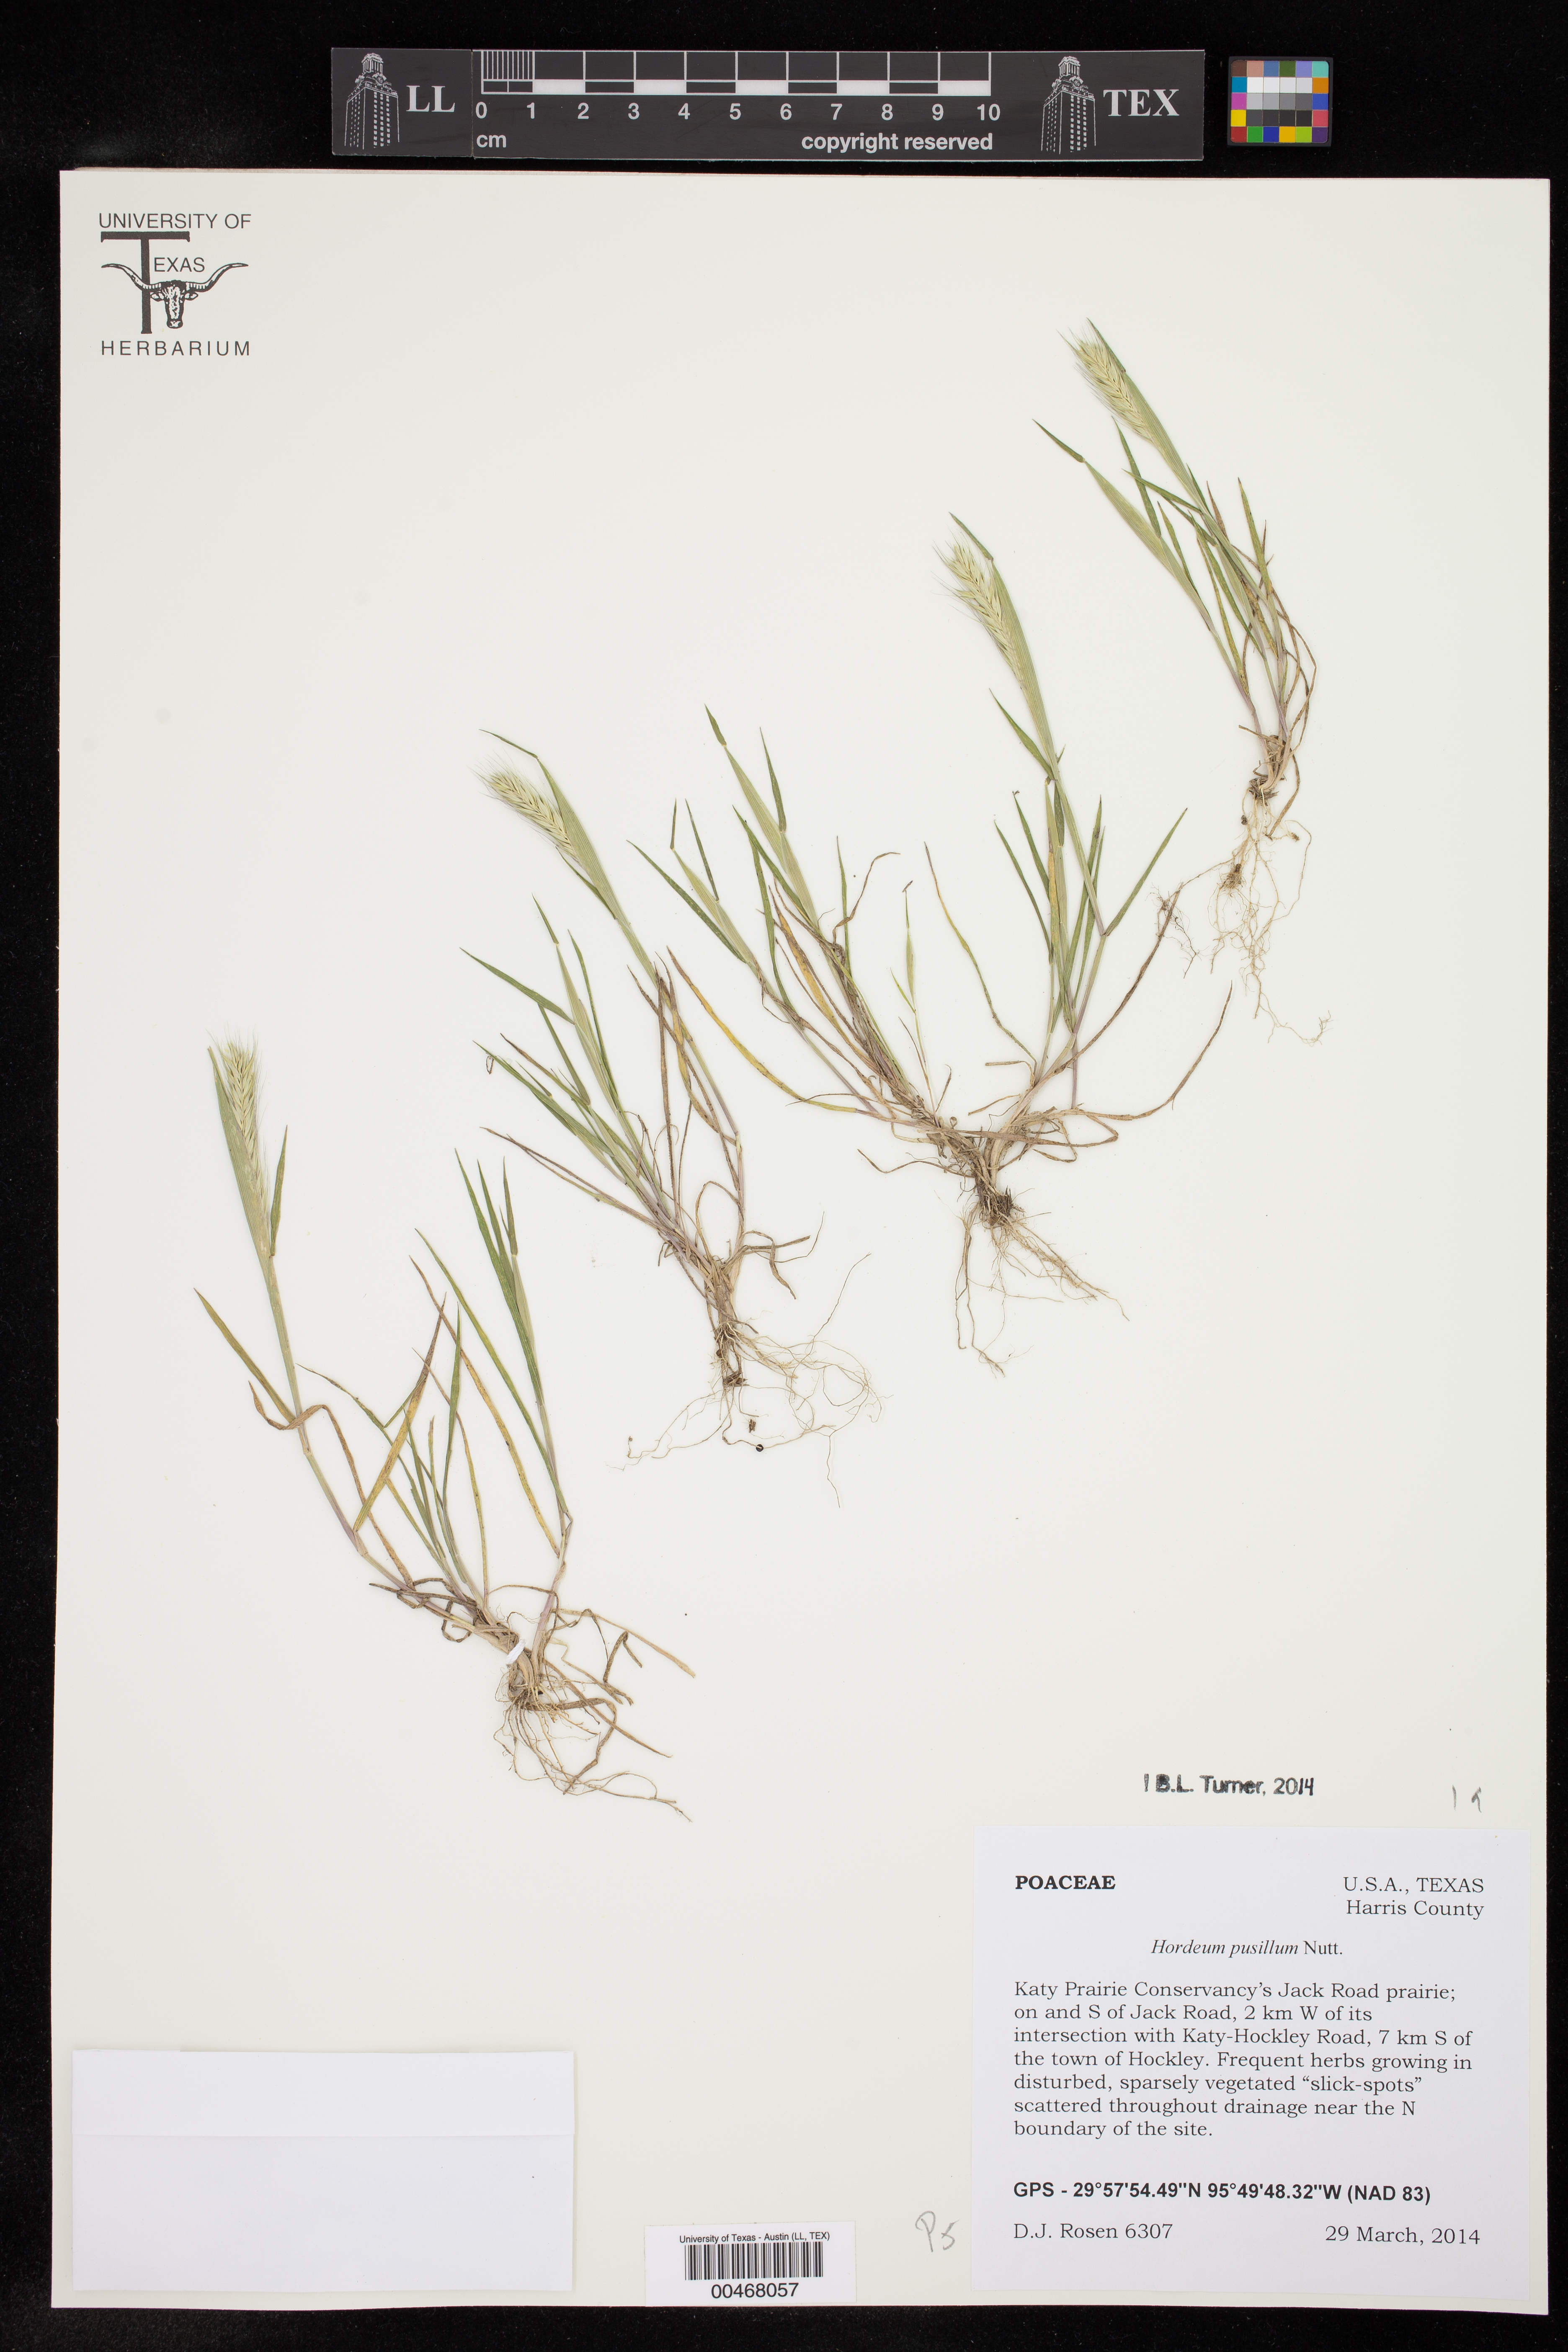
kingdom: Plantae
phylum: Tracheophyta
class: Liliopsida
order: Poales
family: Poaceae
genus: Hordeum
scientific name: Hordeum pusillum
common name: Little barley
